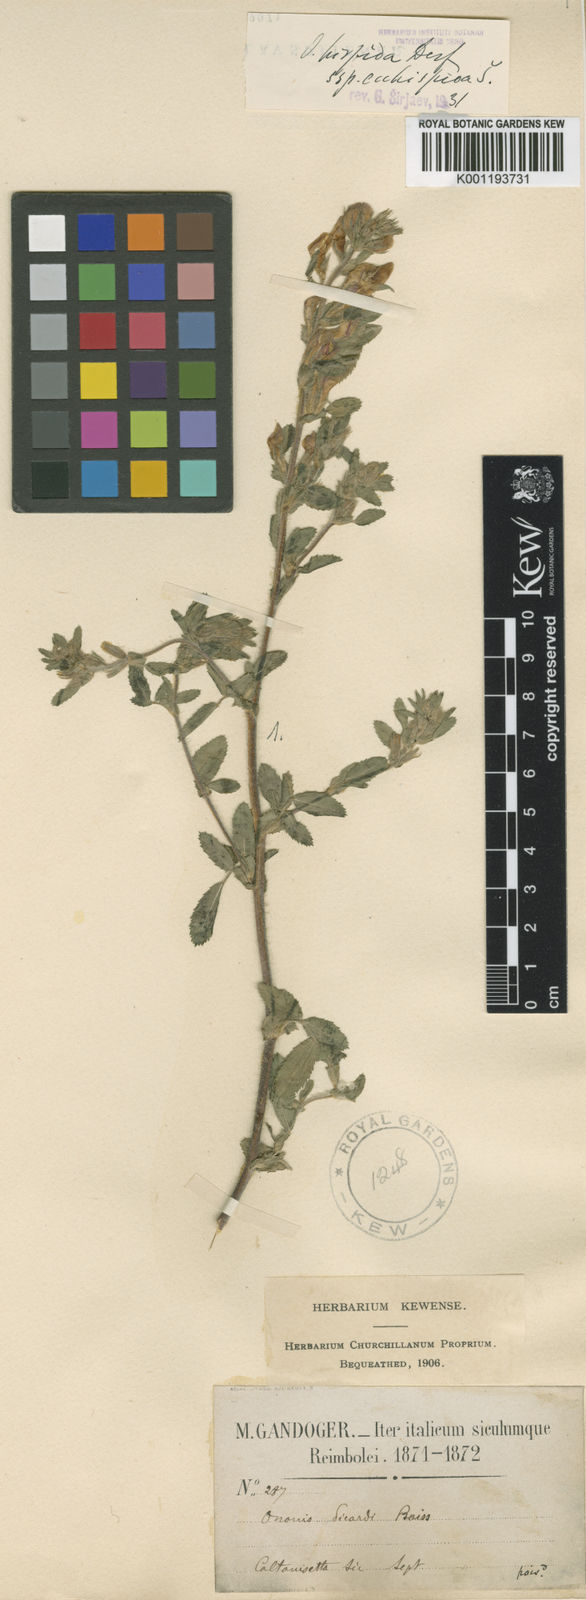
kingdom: Plantae
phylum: Tracheophyta
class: Magnoliopsida
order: Fabales
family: Fabaceae
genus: Ononis
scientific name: Ononis hispida
